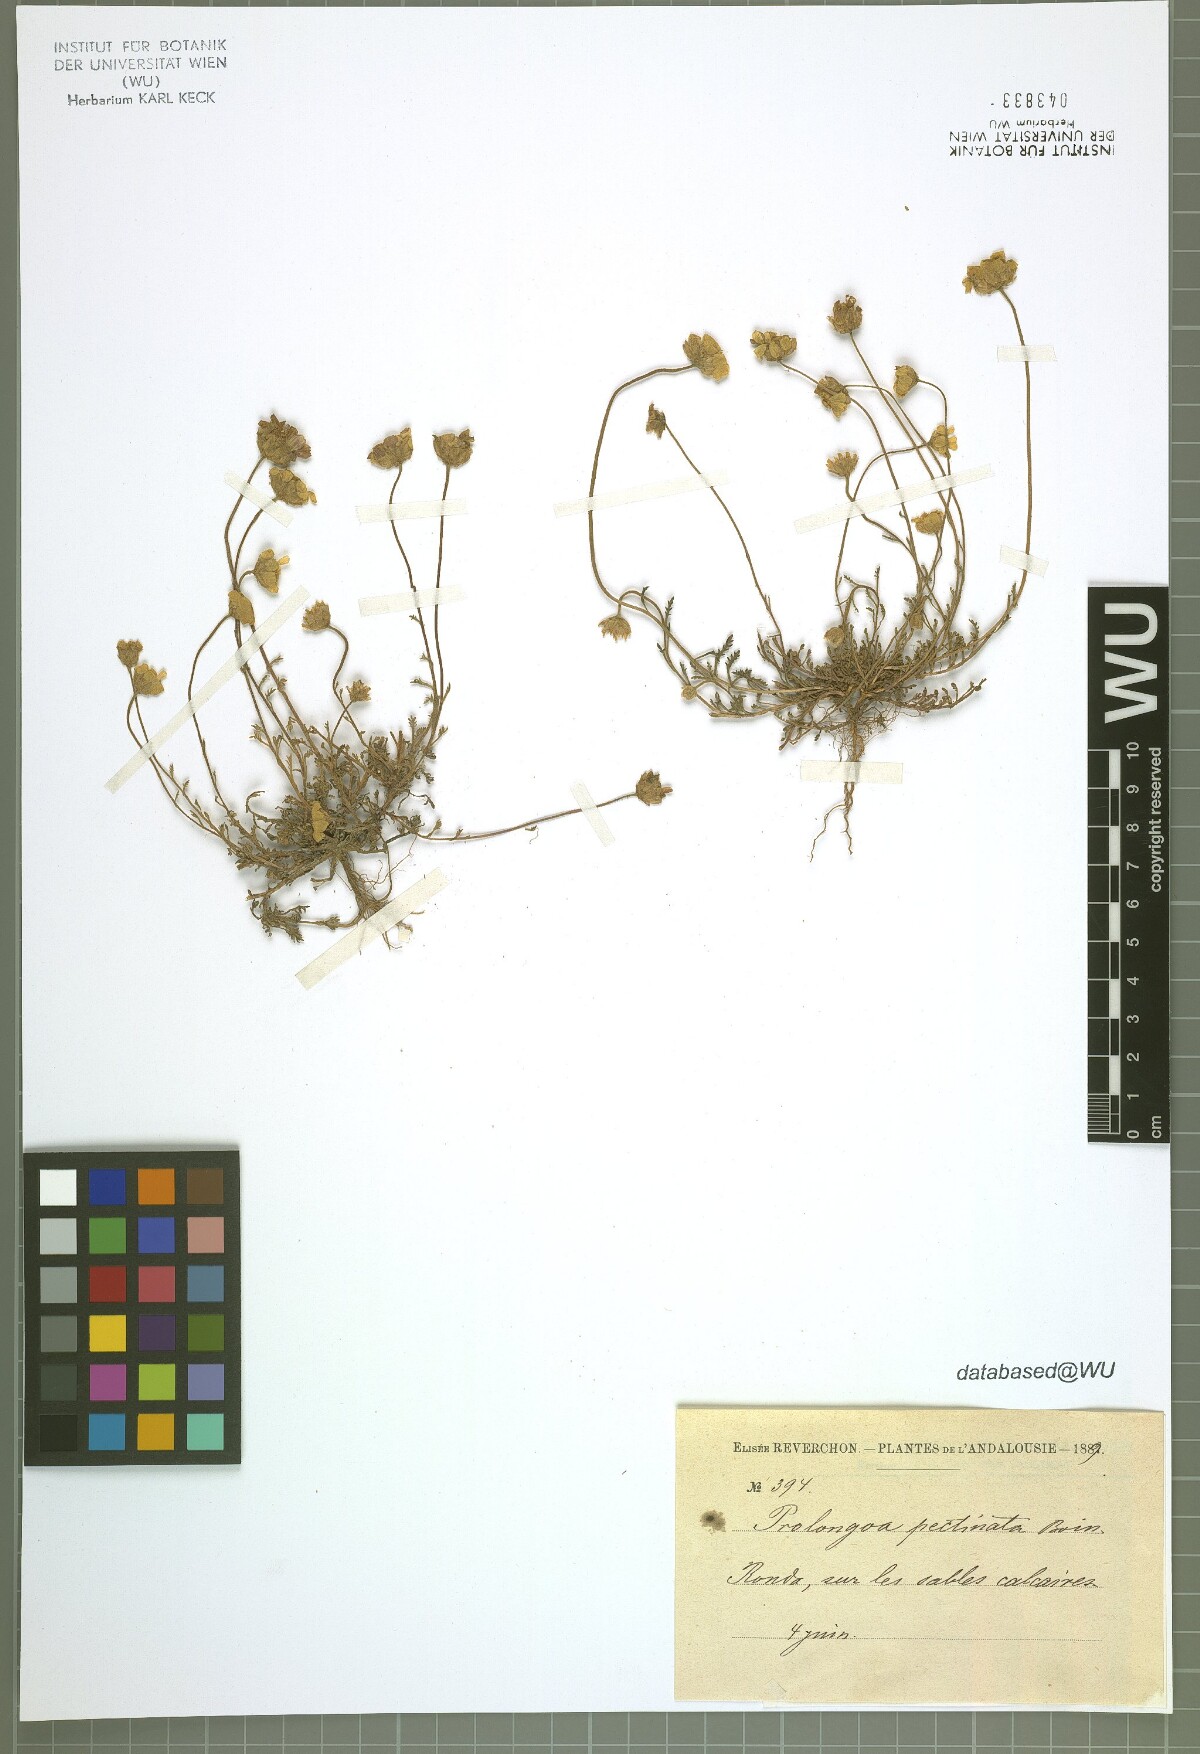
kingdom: Plantae
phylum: Tracheophyta
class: Magnoliopsida
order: Asterales
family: Asteraceae
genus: Leucanthemopsis
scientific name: Leucanthemopsis pectinata
